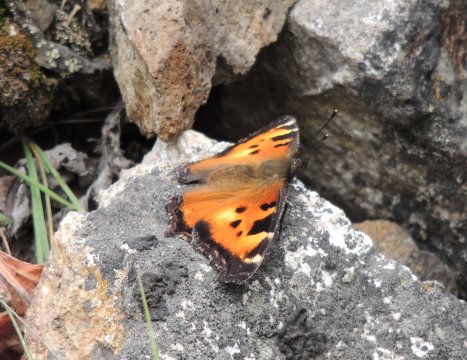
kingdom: Animalia
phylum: Arthropoda
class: Insecta
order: Lepidoptera
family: Nymphalidae
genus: Nymphalis
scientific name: Nymphalis californica
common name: California Tortoiseshell
